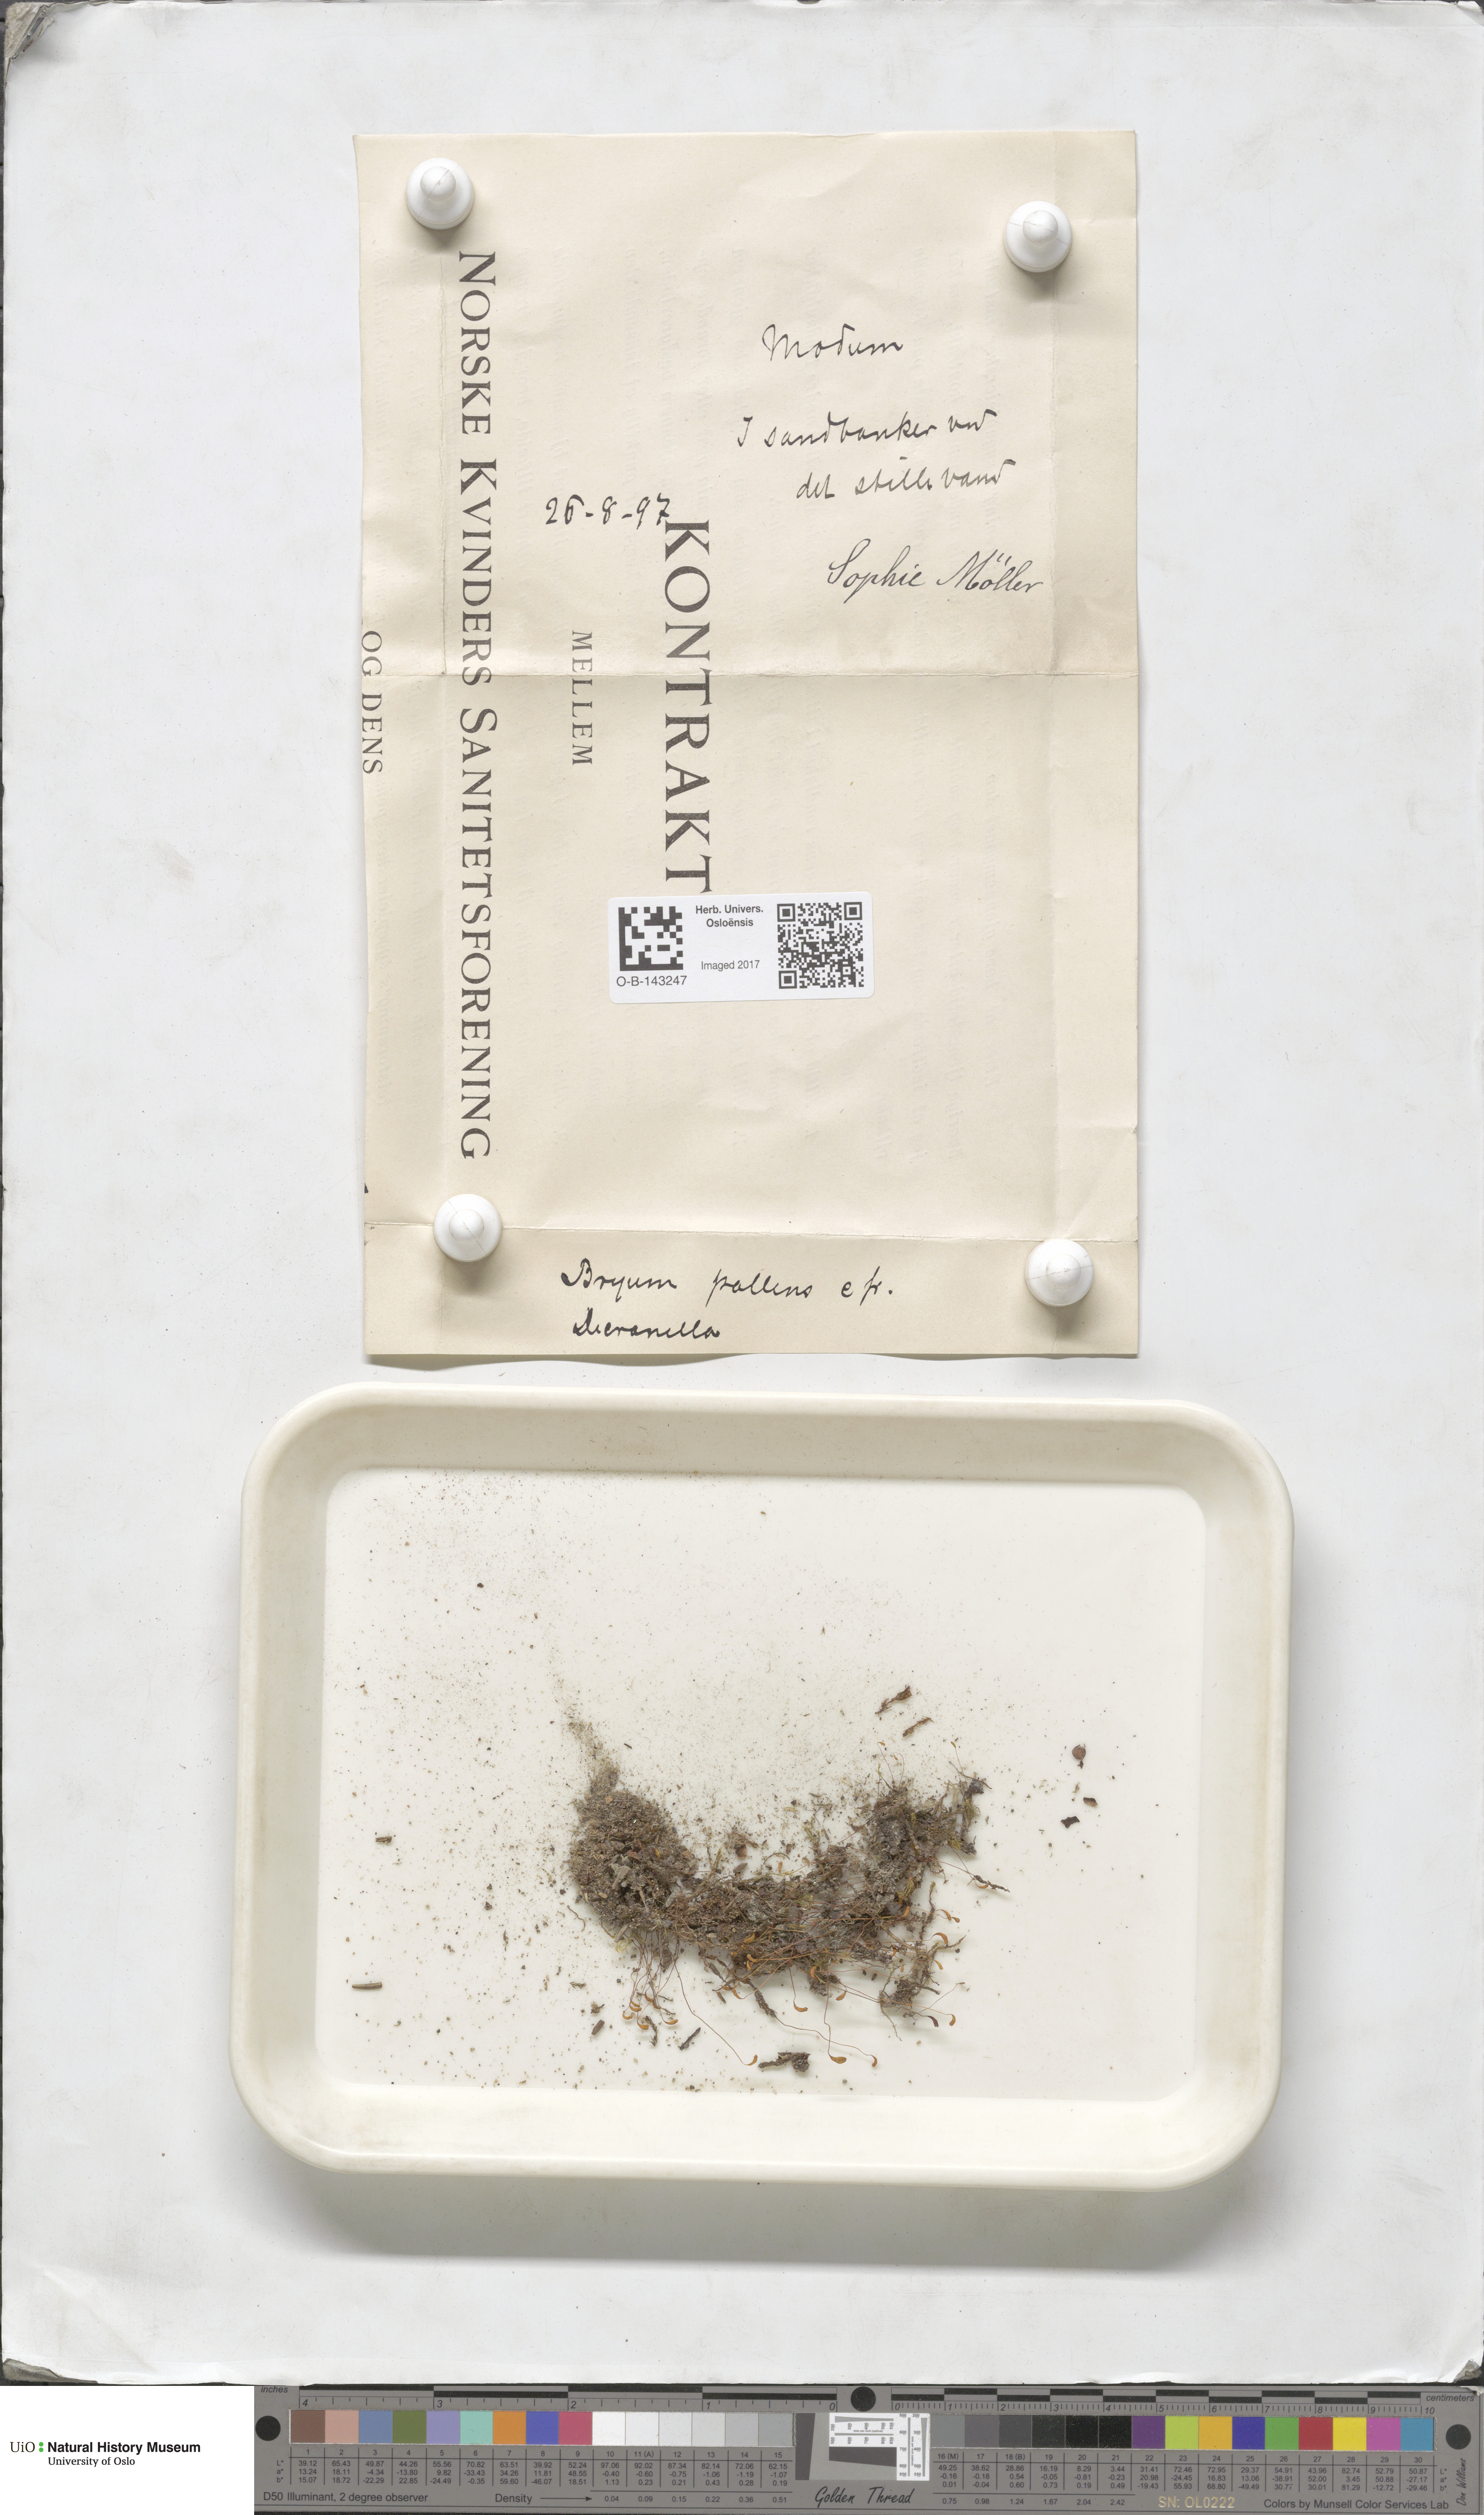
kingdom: Plantae
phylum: Bryophyta
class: Bryopsida
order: Bryales
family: Bryaceae
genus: Bryum
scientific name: Bryum
